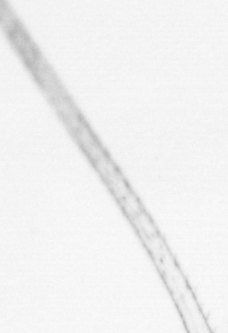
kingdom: Animalia
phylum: Arthropoda
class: Copepoda
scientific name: Copepoda
